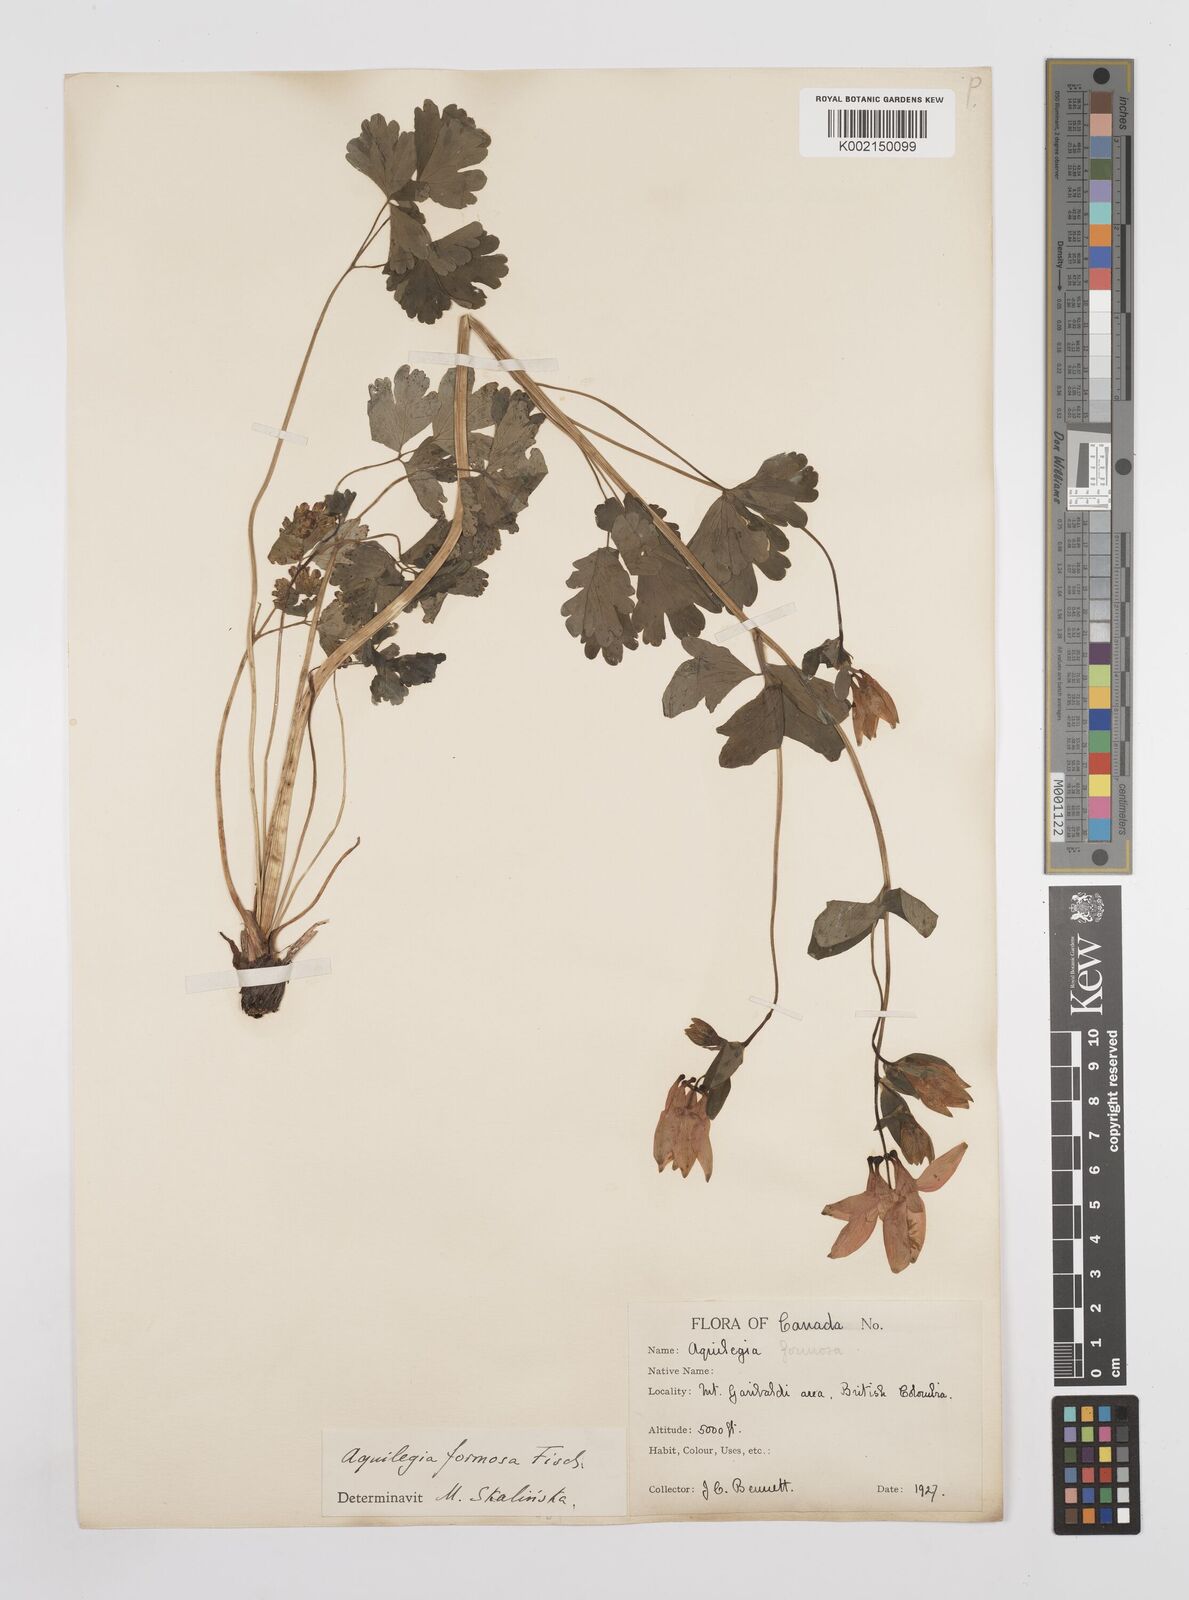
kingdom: Plantae
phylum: Tracheophyta
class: Magnoliopsida
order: Ranunculales
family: Ranunculaceae
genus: Aquilegia
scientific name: Aquilegia
